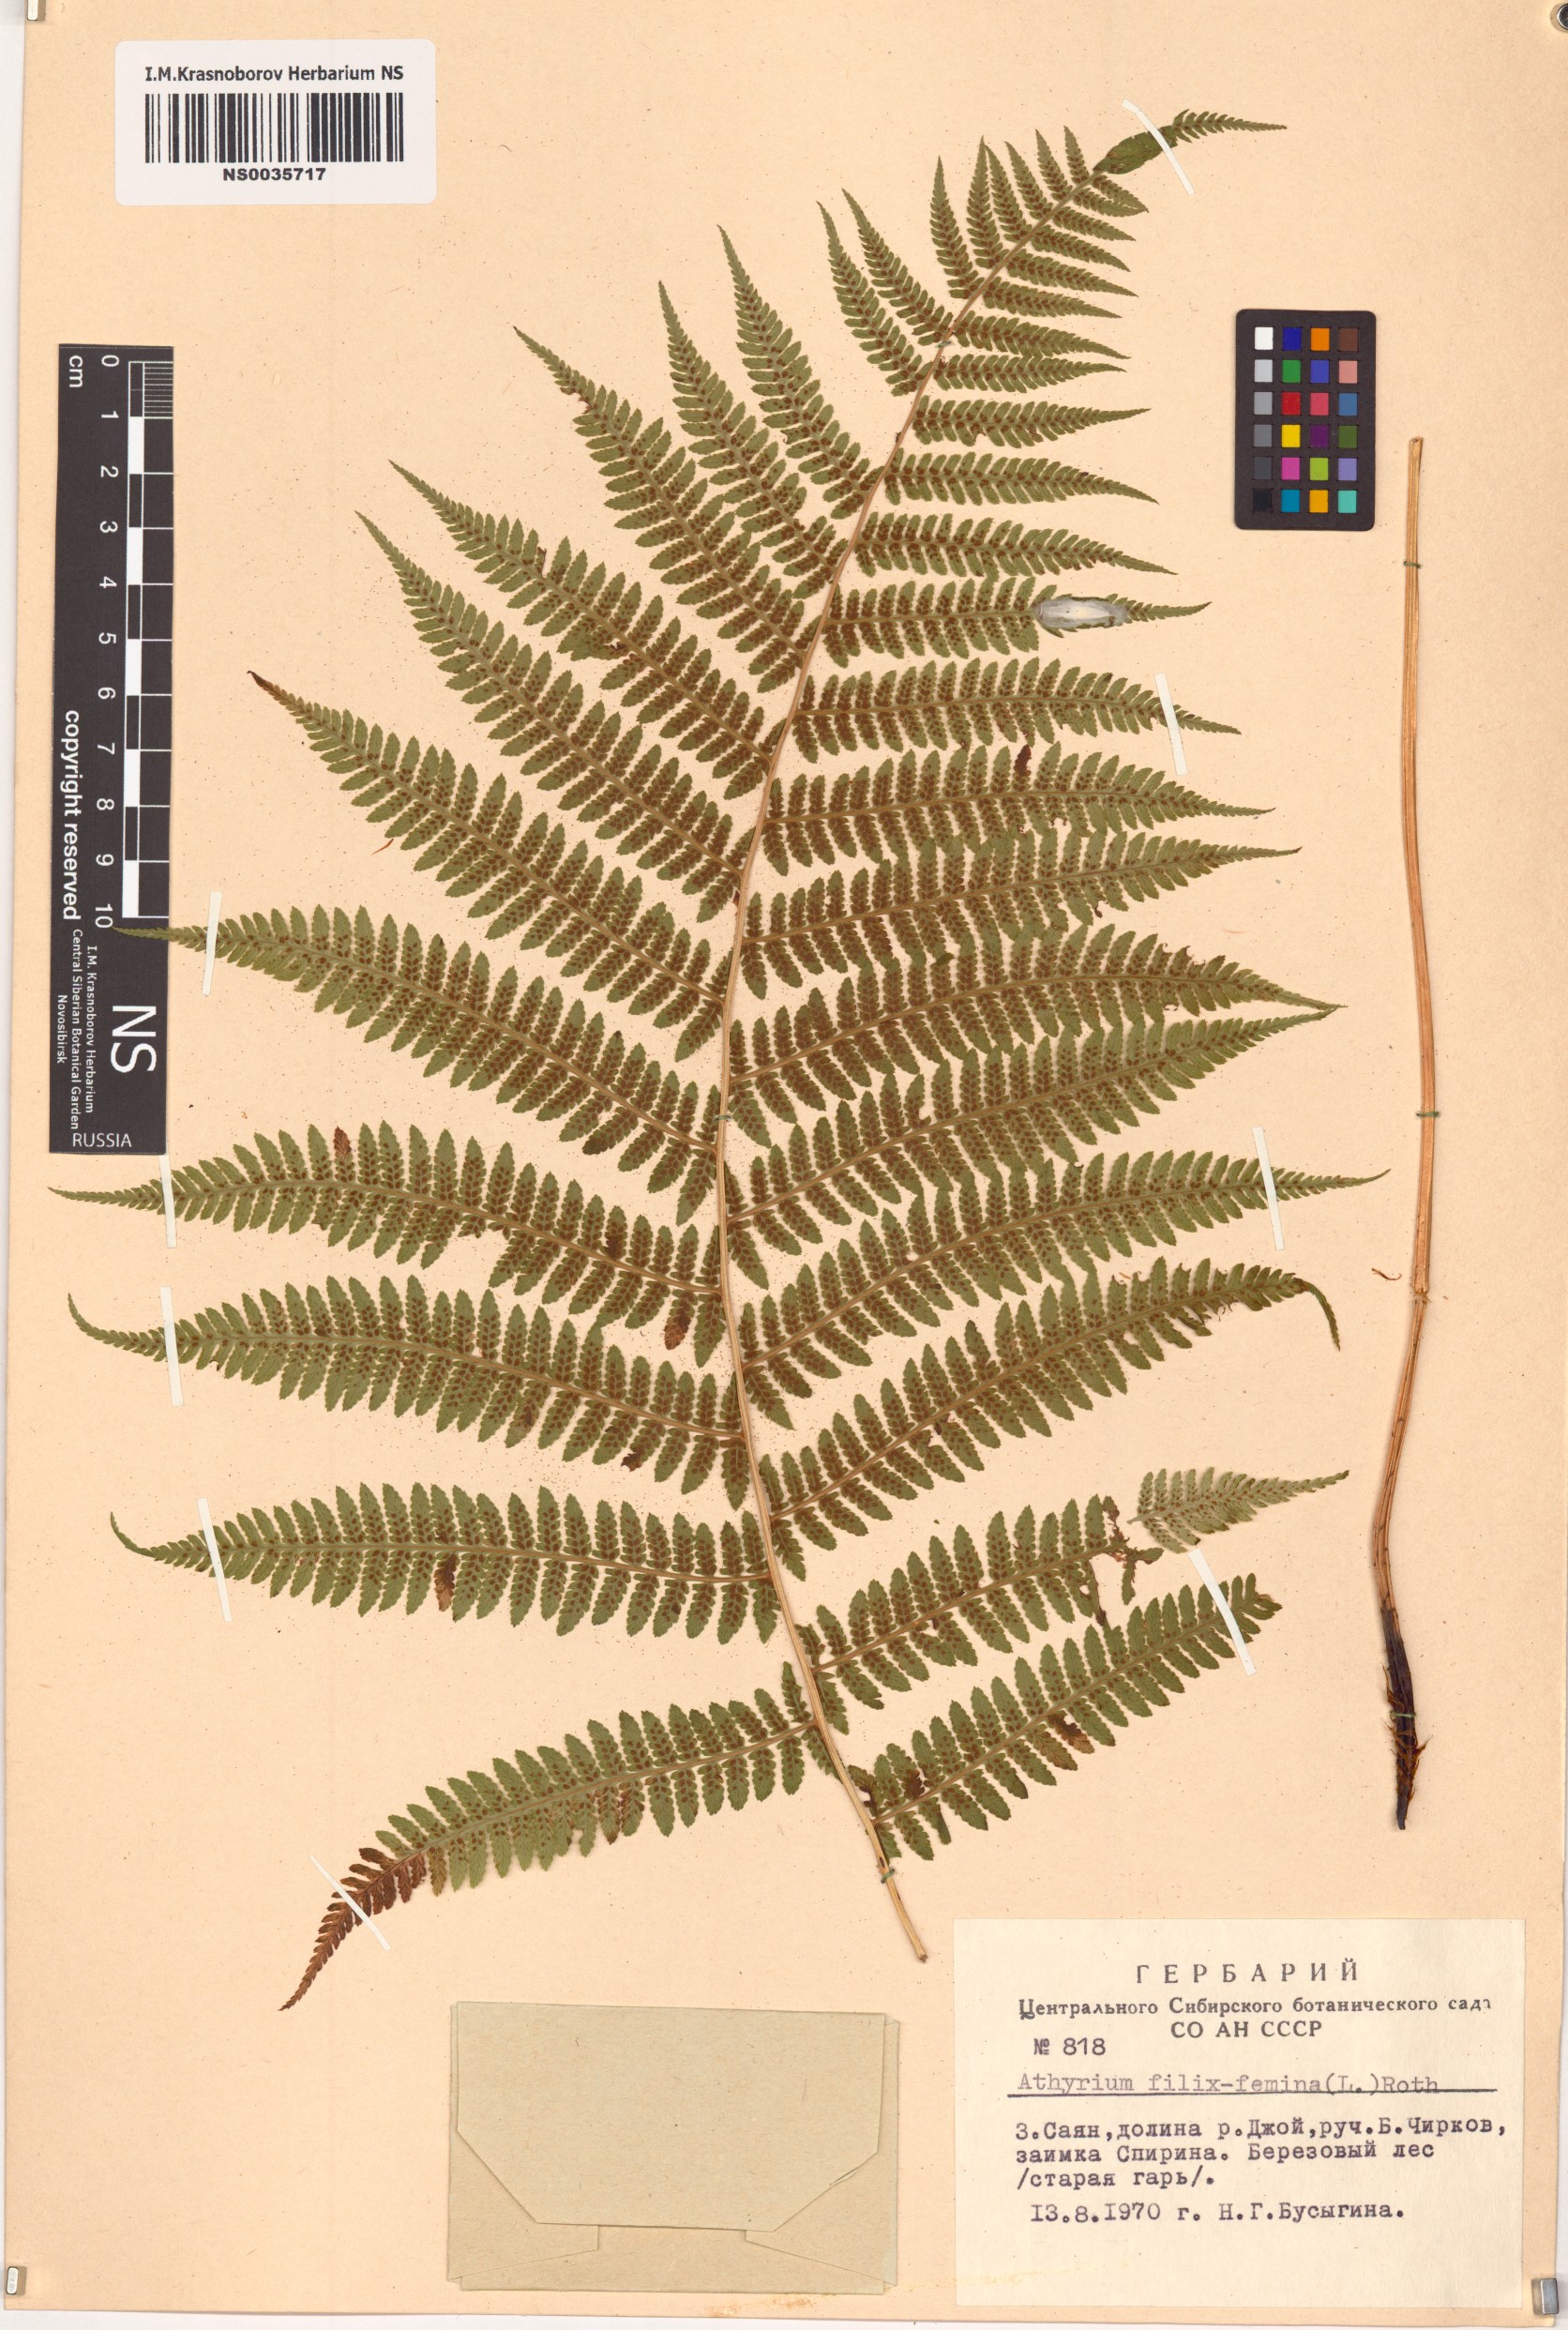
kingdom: Plantae
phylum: Tracheophyta
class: Polypodiopsida
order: Polypodiales
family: Athyriaceae
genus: Athyrium
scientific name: Athyrium filix-femina
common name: Lady fern
